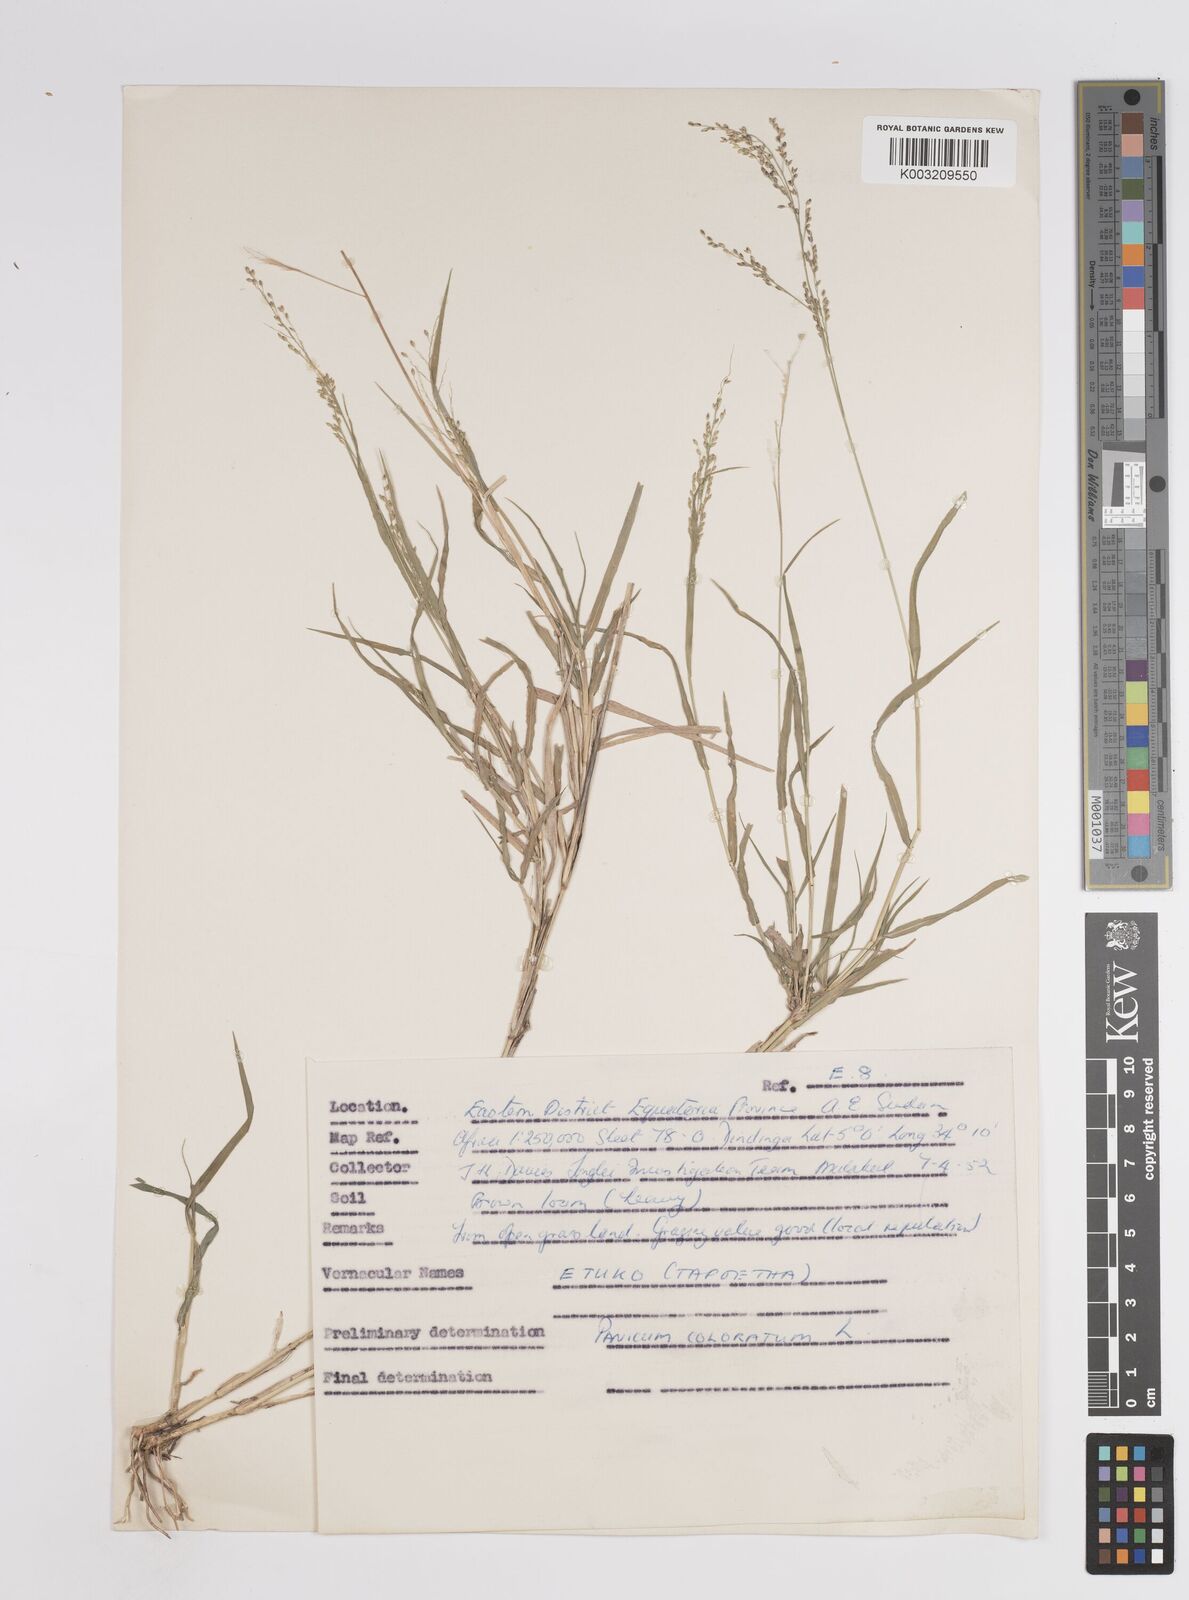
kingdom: Plantae
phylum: Tracheophyta
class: Liliopsida
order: Poales
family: Poaceae
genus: Panicum
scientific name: Panicum coloratum
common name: Kleingrass
